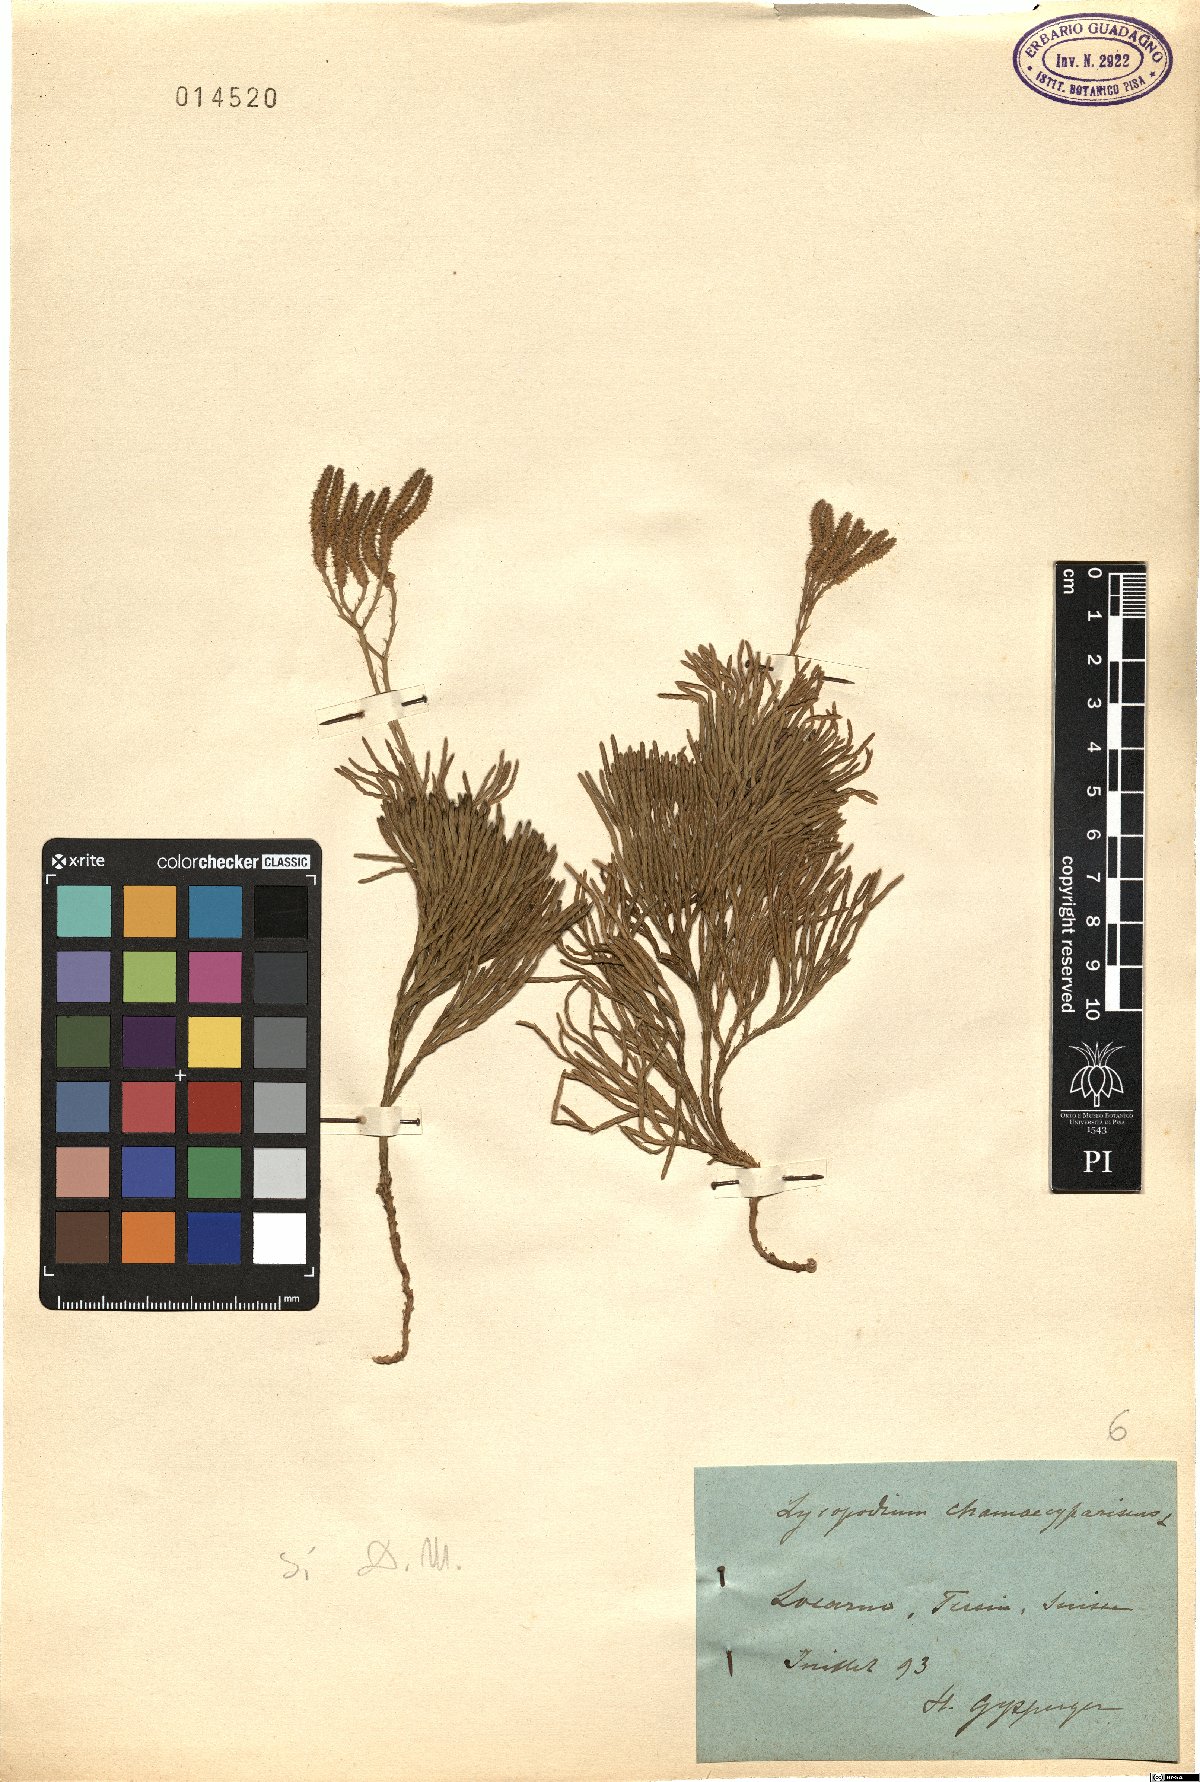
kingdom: Plantae
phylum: Tracheophyta
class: Lycopodiopsida
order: Lycopodiales
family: Lycopodiaceae
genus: Diphasiastrum
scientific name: Diphasiastrum tristachyum
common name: Blue ground-cedar
